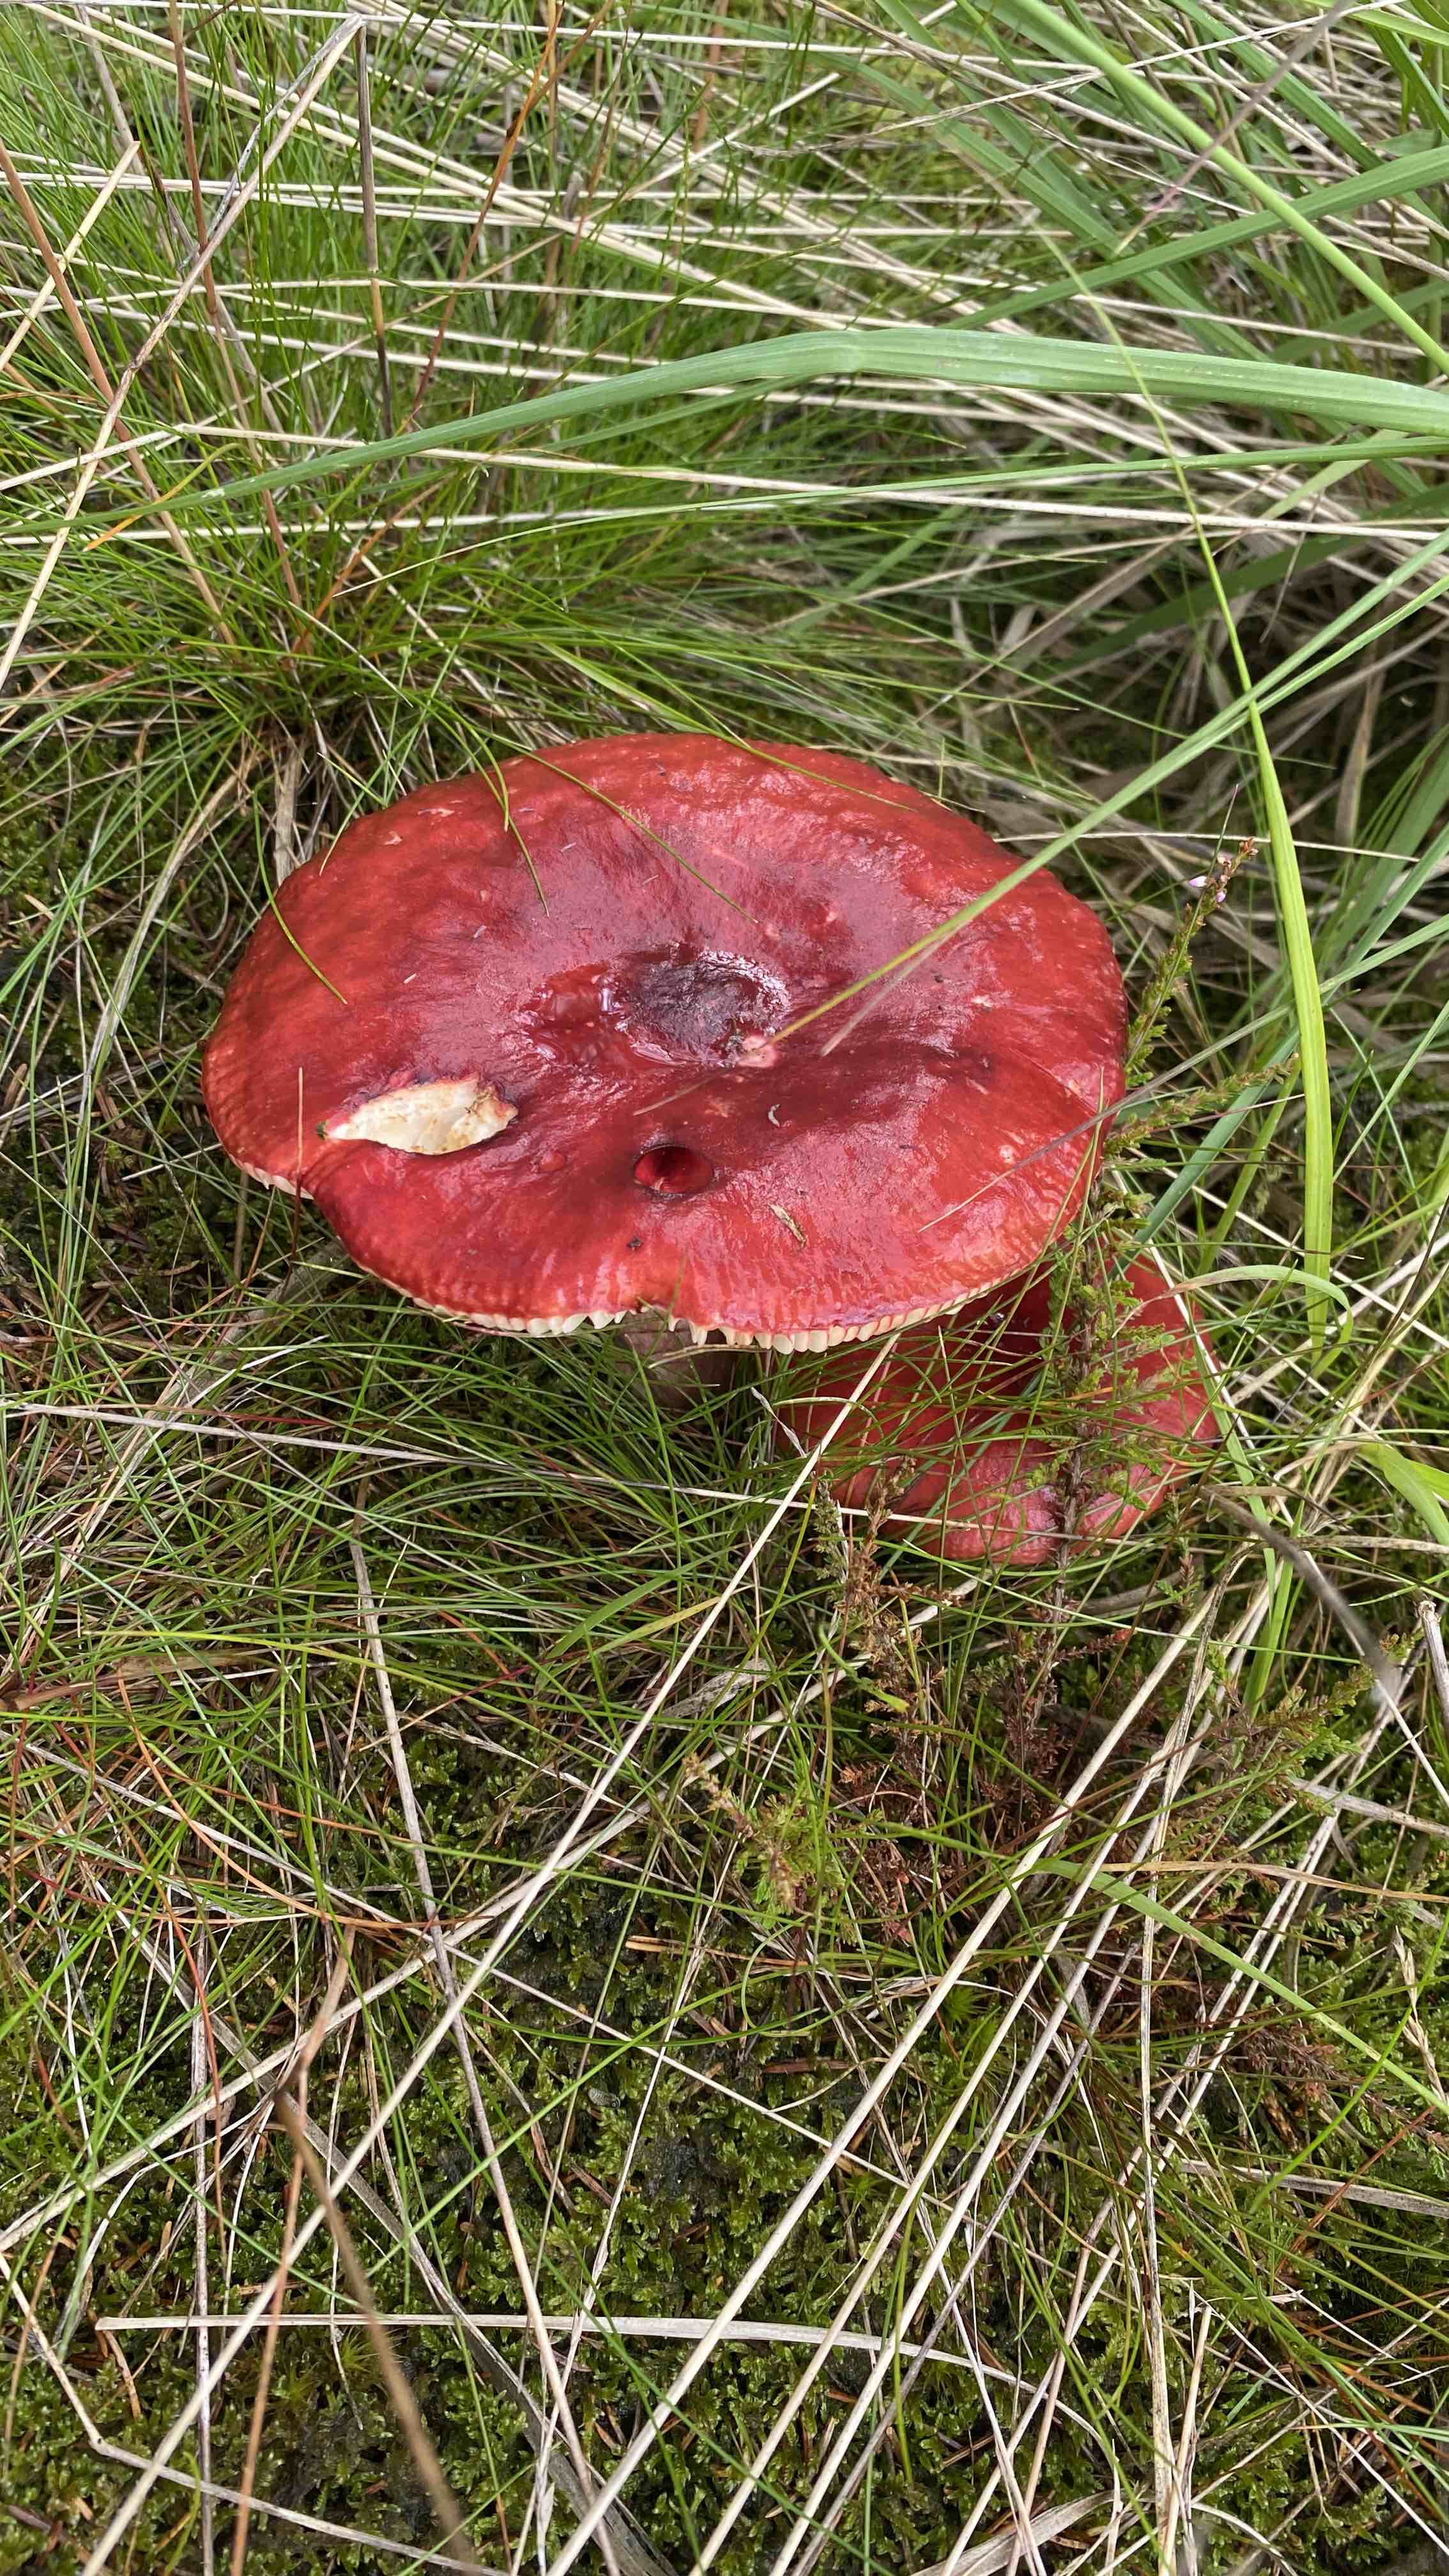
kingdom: Fungi
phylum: Basidiomycota
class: Agaricomycetes
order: Russulales
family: Russulaceae
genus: Russula
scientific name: Russula paludosa
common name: prægtig skørhat
